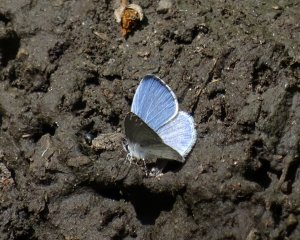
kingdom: Animalia
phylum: Arthropoda
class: Insecta
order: Lepidoptera
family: Lycaenidae
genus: Cyaniris
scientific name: Cyaniris neglecta
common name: Summer Azure
